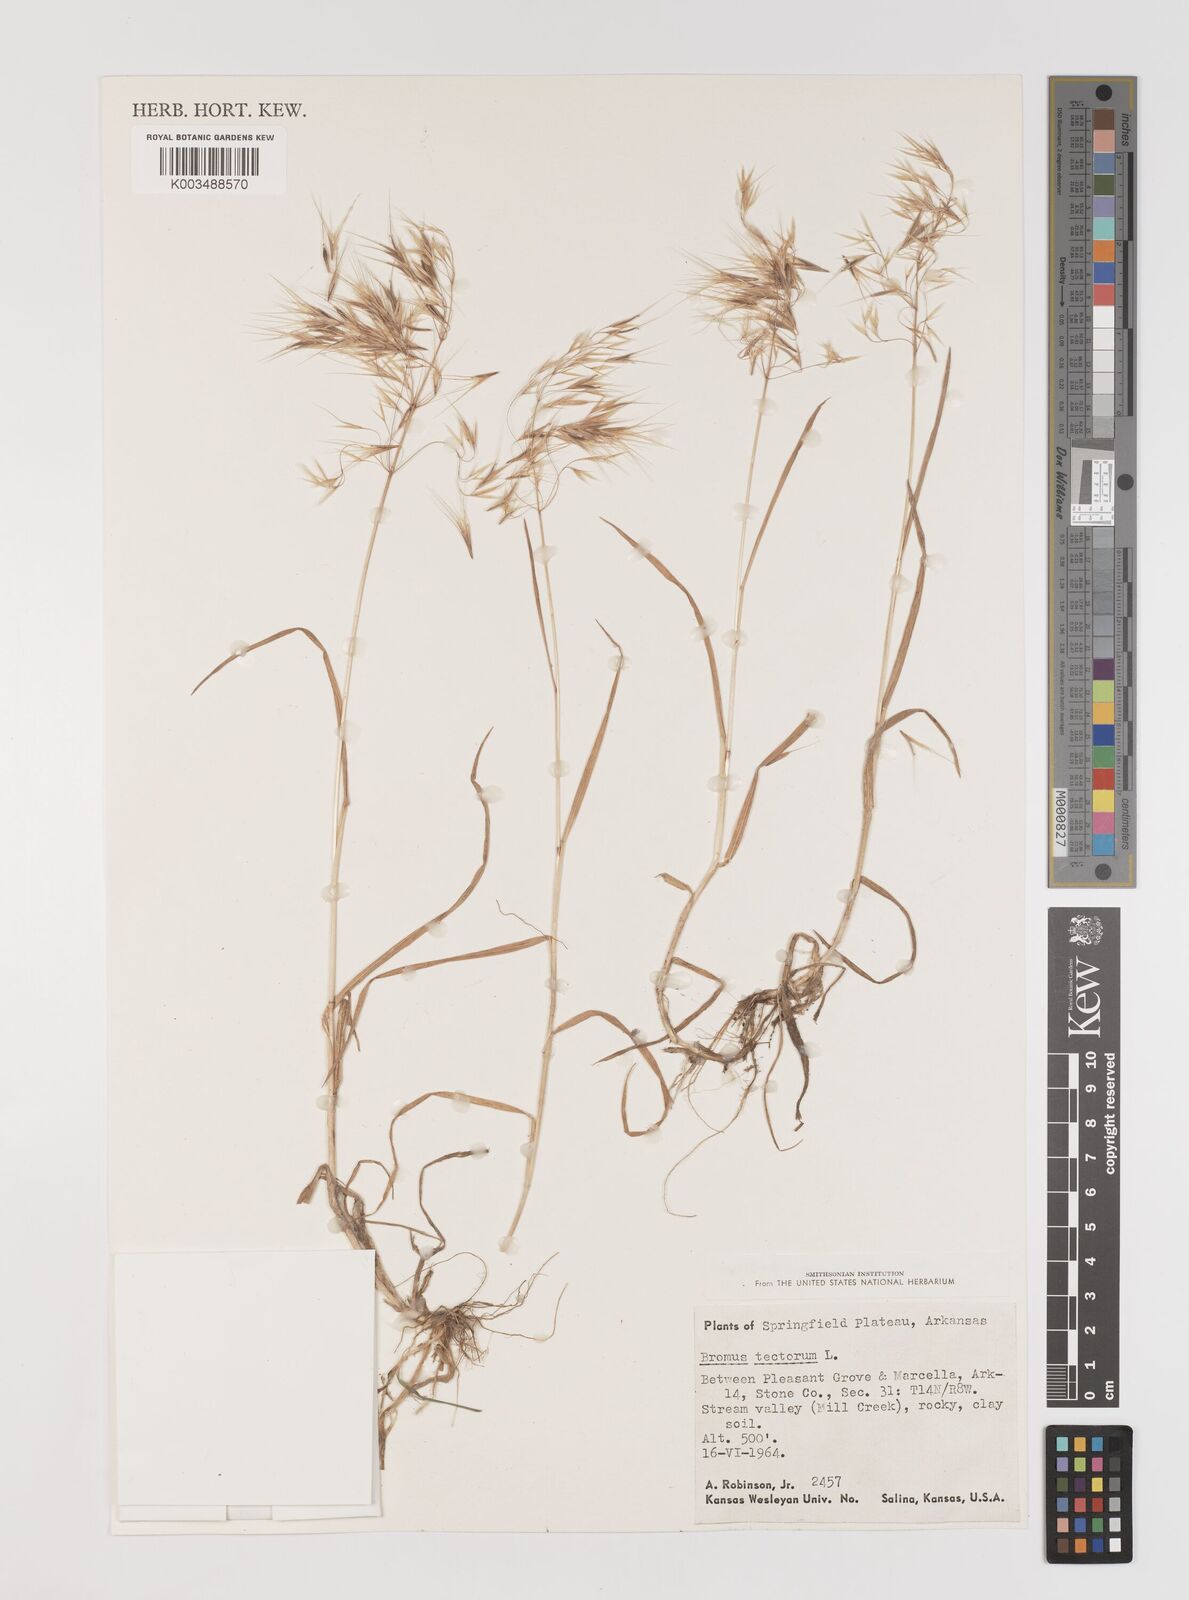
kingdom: Plantae
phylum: Tracheophyta
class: Liliopsida
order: Poales
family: Poaceae
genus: Bromus
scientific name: Bromus tectorum
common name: Cheatgrass
